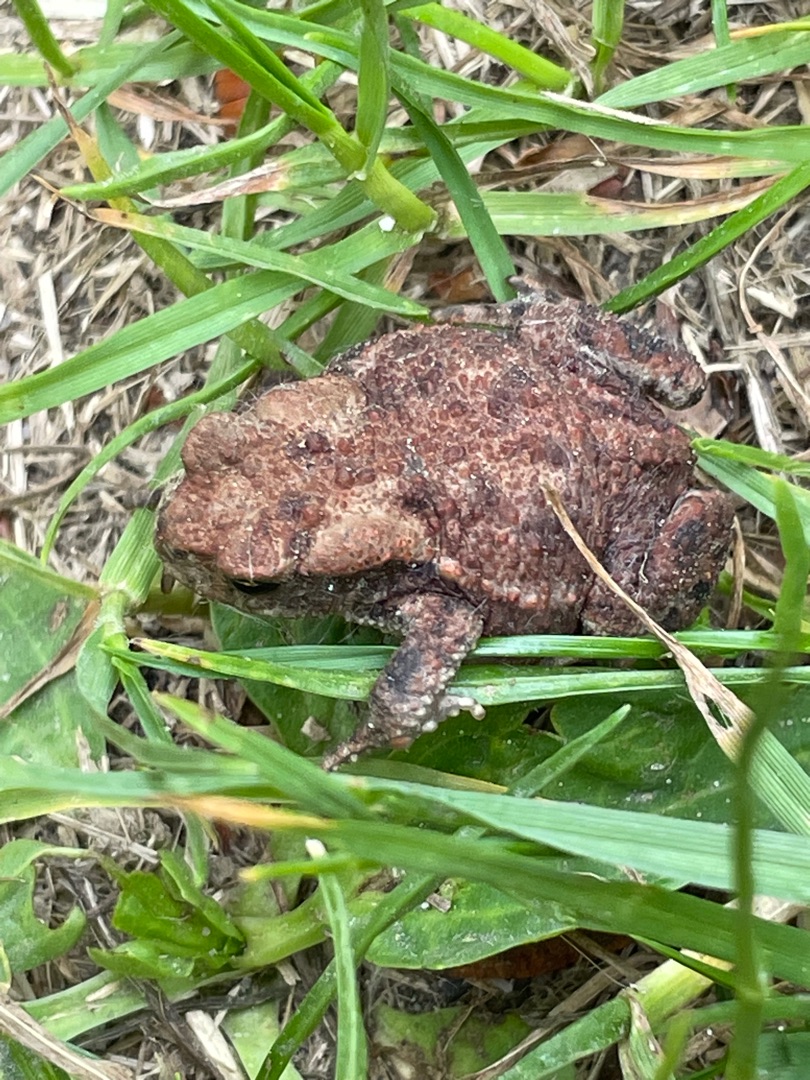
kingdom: Animalia
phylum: Chordata
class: Amphibia
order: Anura
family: Bufonidae
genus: Bufo
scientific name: Bufo bufo
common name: Skrubtudse
